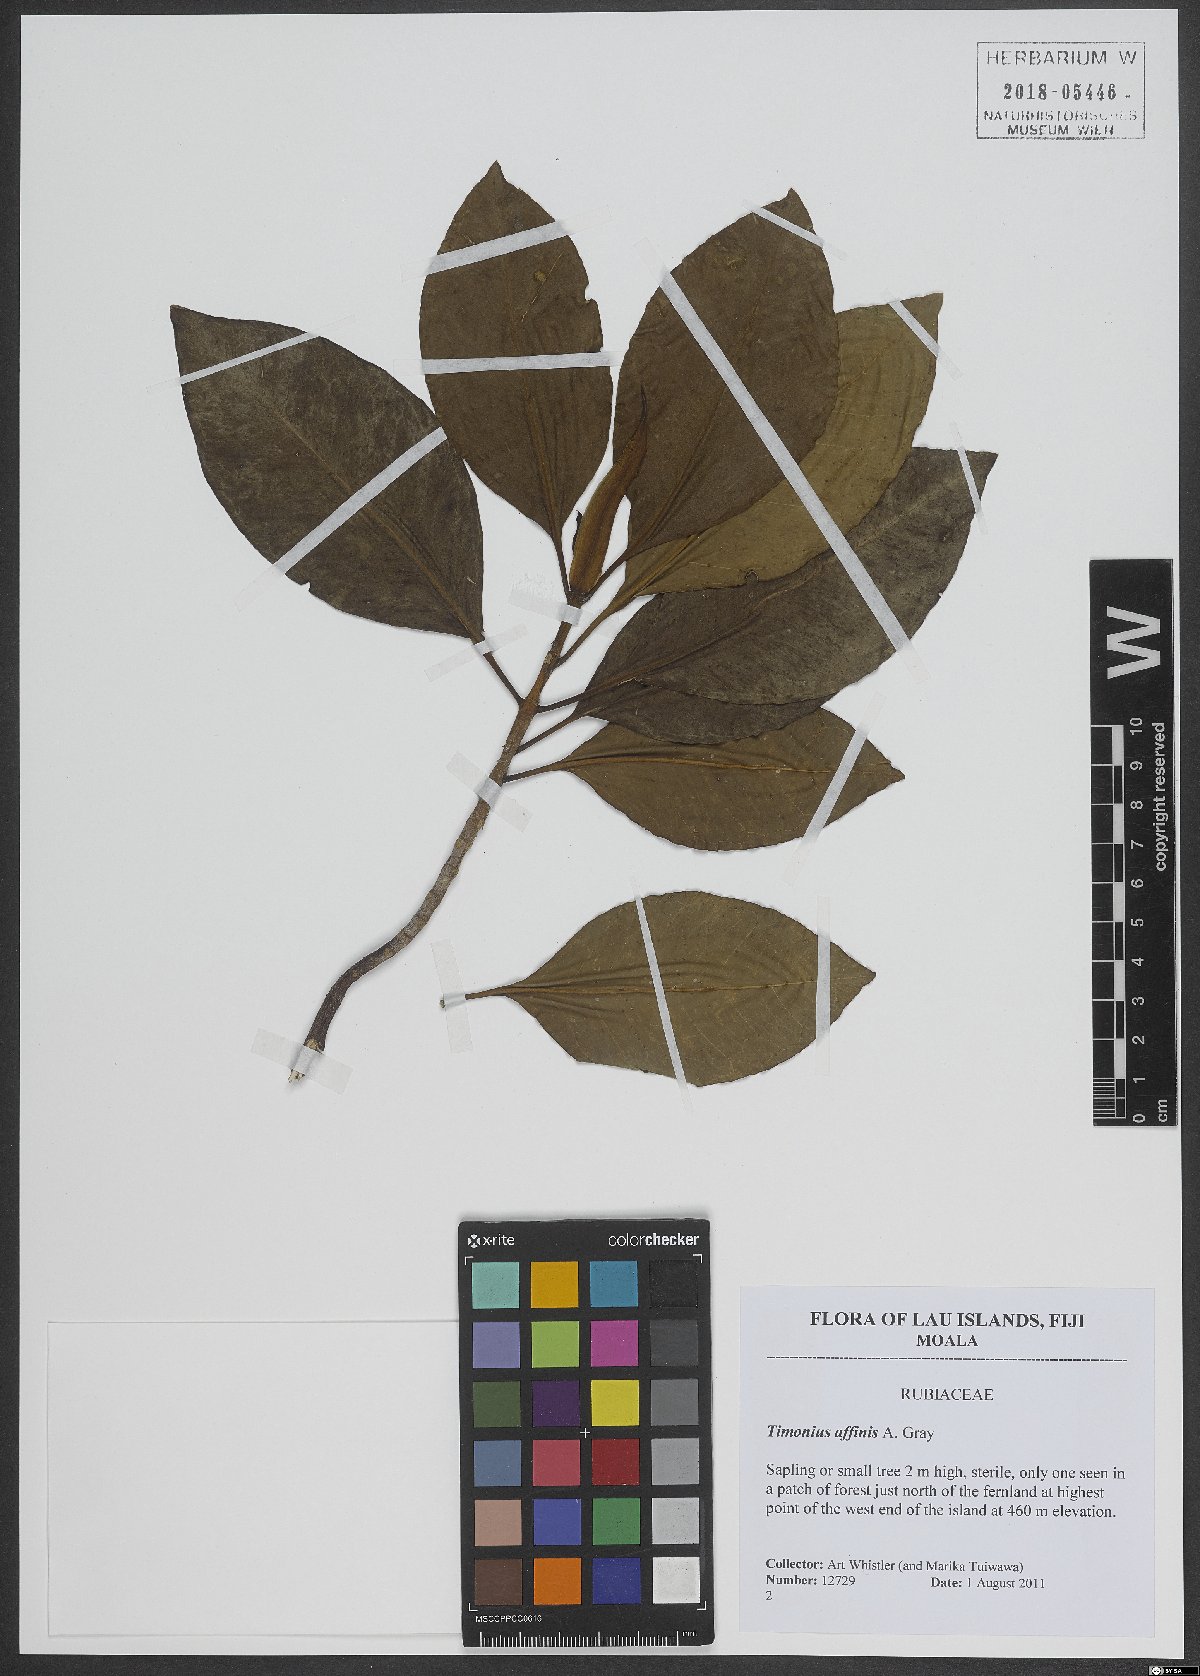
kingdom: Plantae
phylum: Tracheophyta
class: Magnoliopsida
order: Gentianales
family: Rubiaceae
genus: Timonius
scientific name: Timonius affinis
